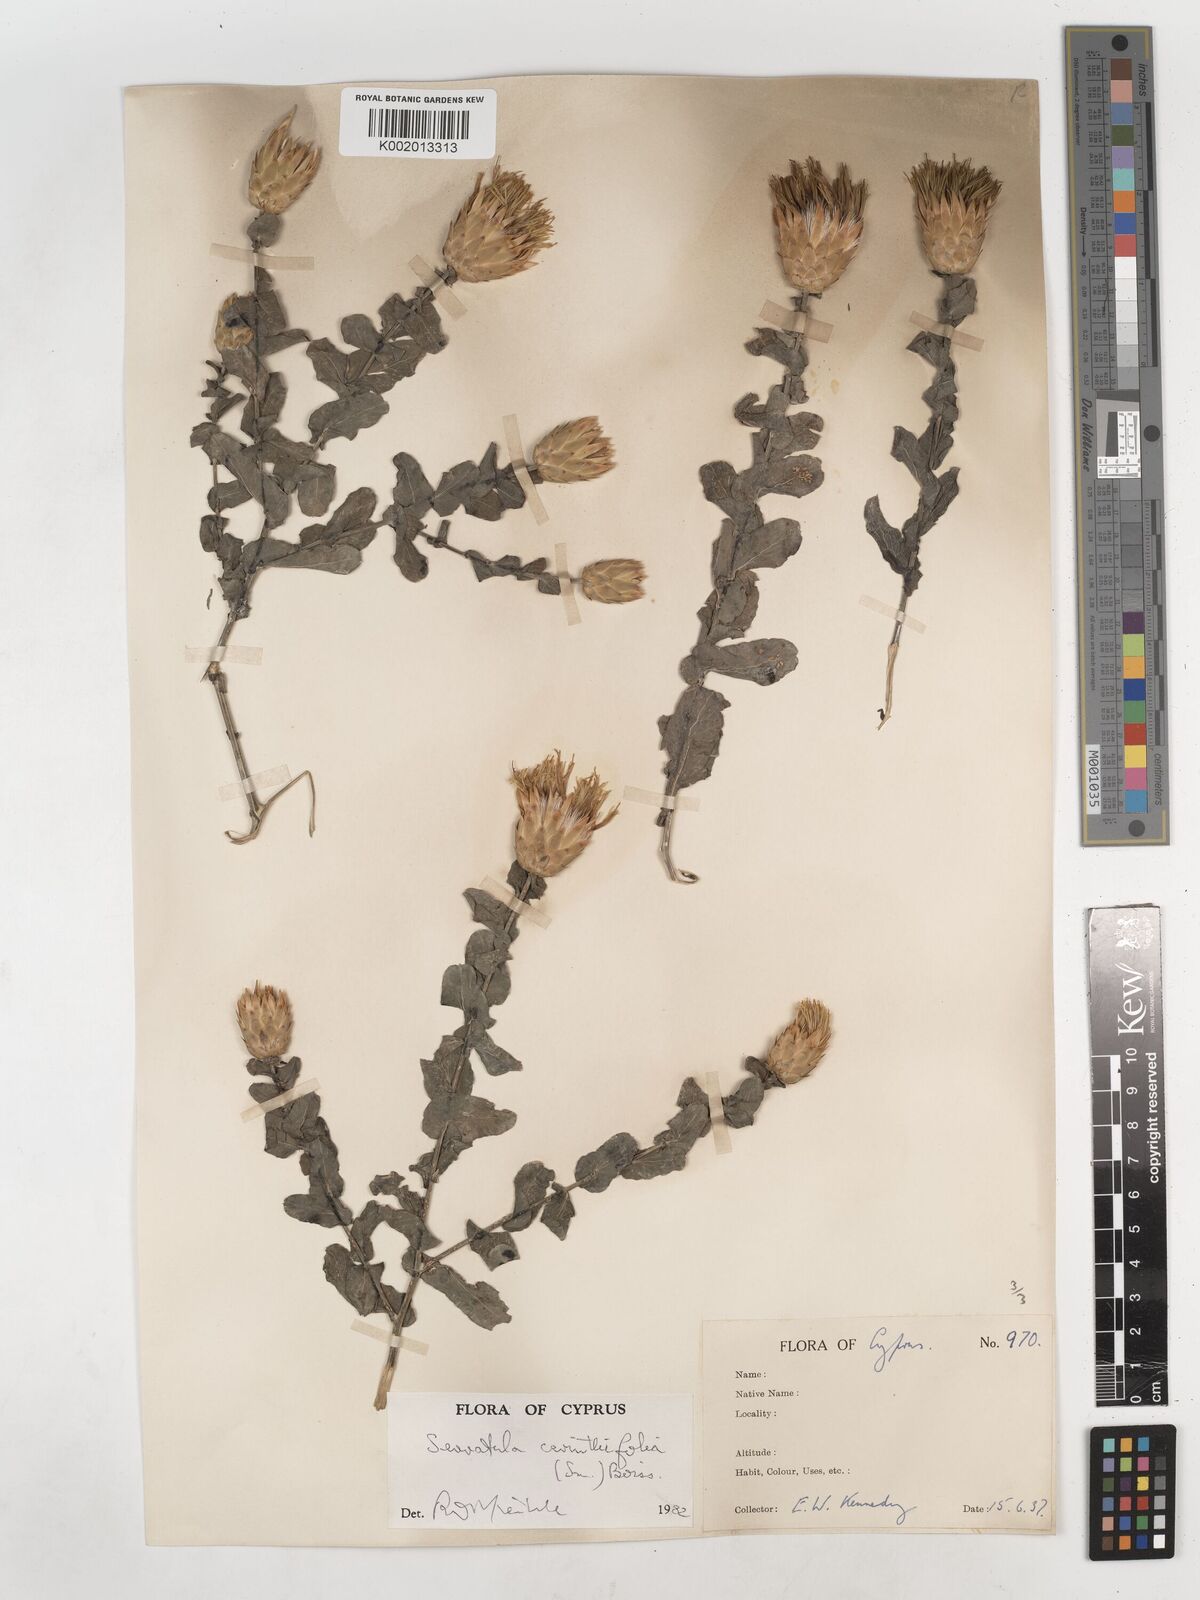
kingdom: Plantae
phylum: Tracheophyta
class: Magnoliopsida
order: Asterales
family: Asteraceae
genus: Klasea
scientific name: Klasea cerinthifolia
